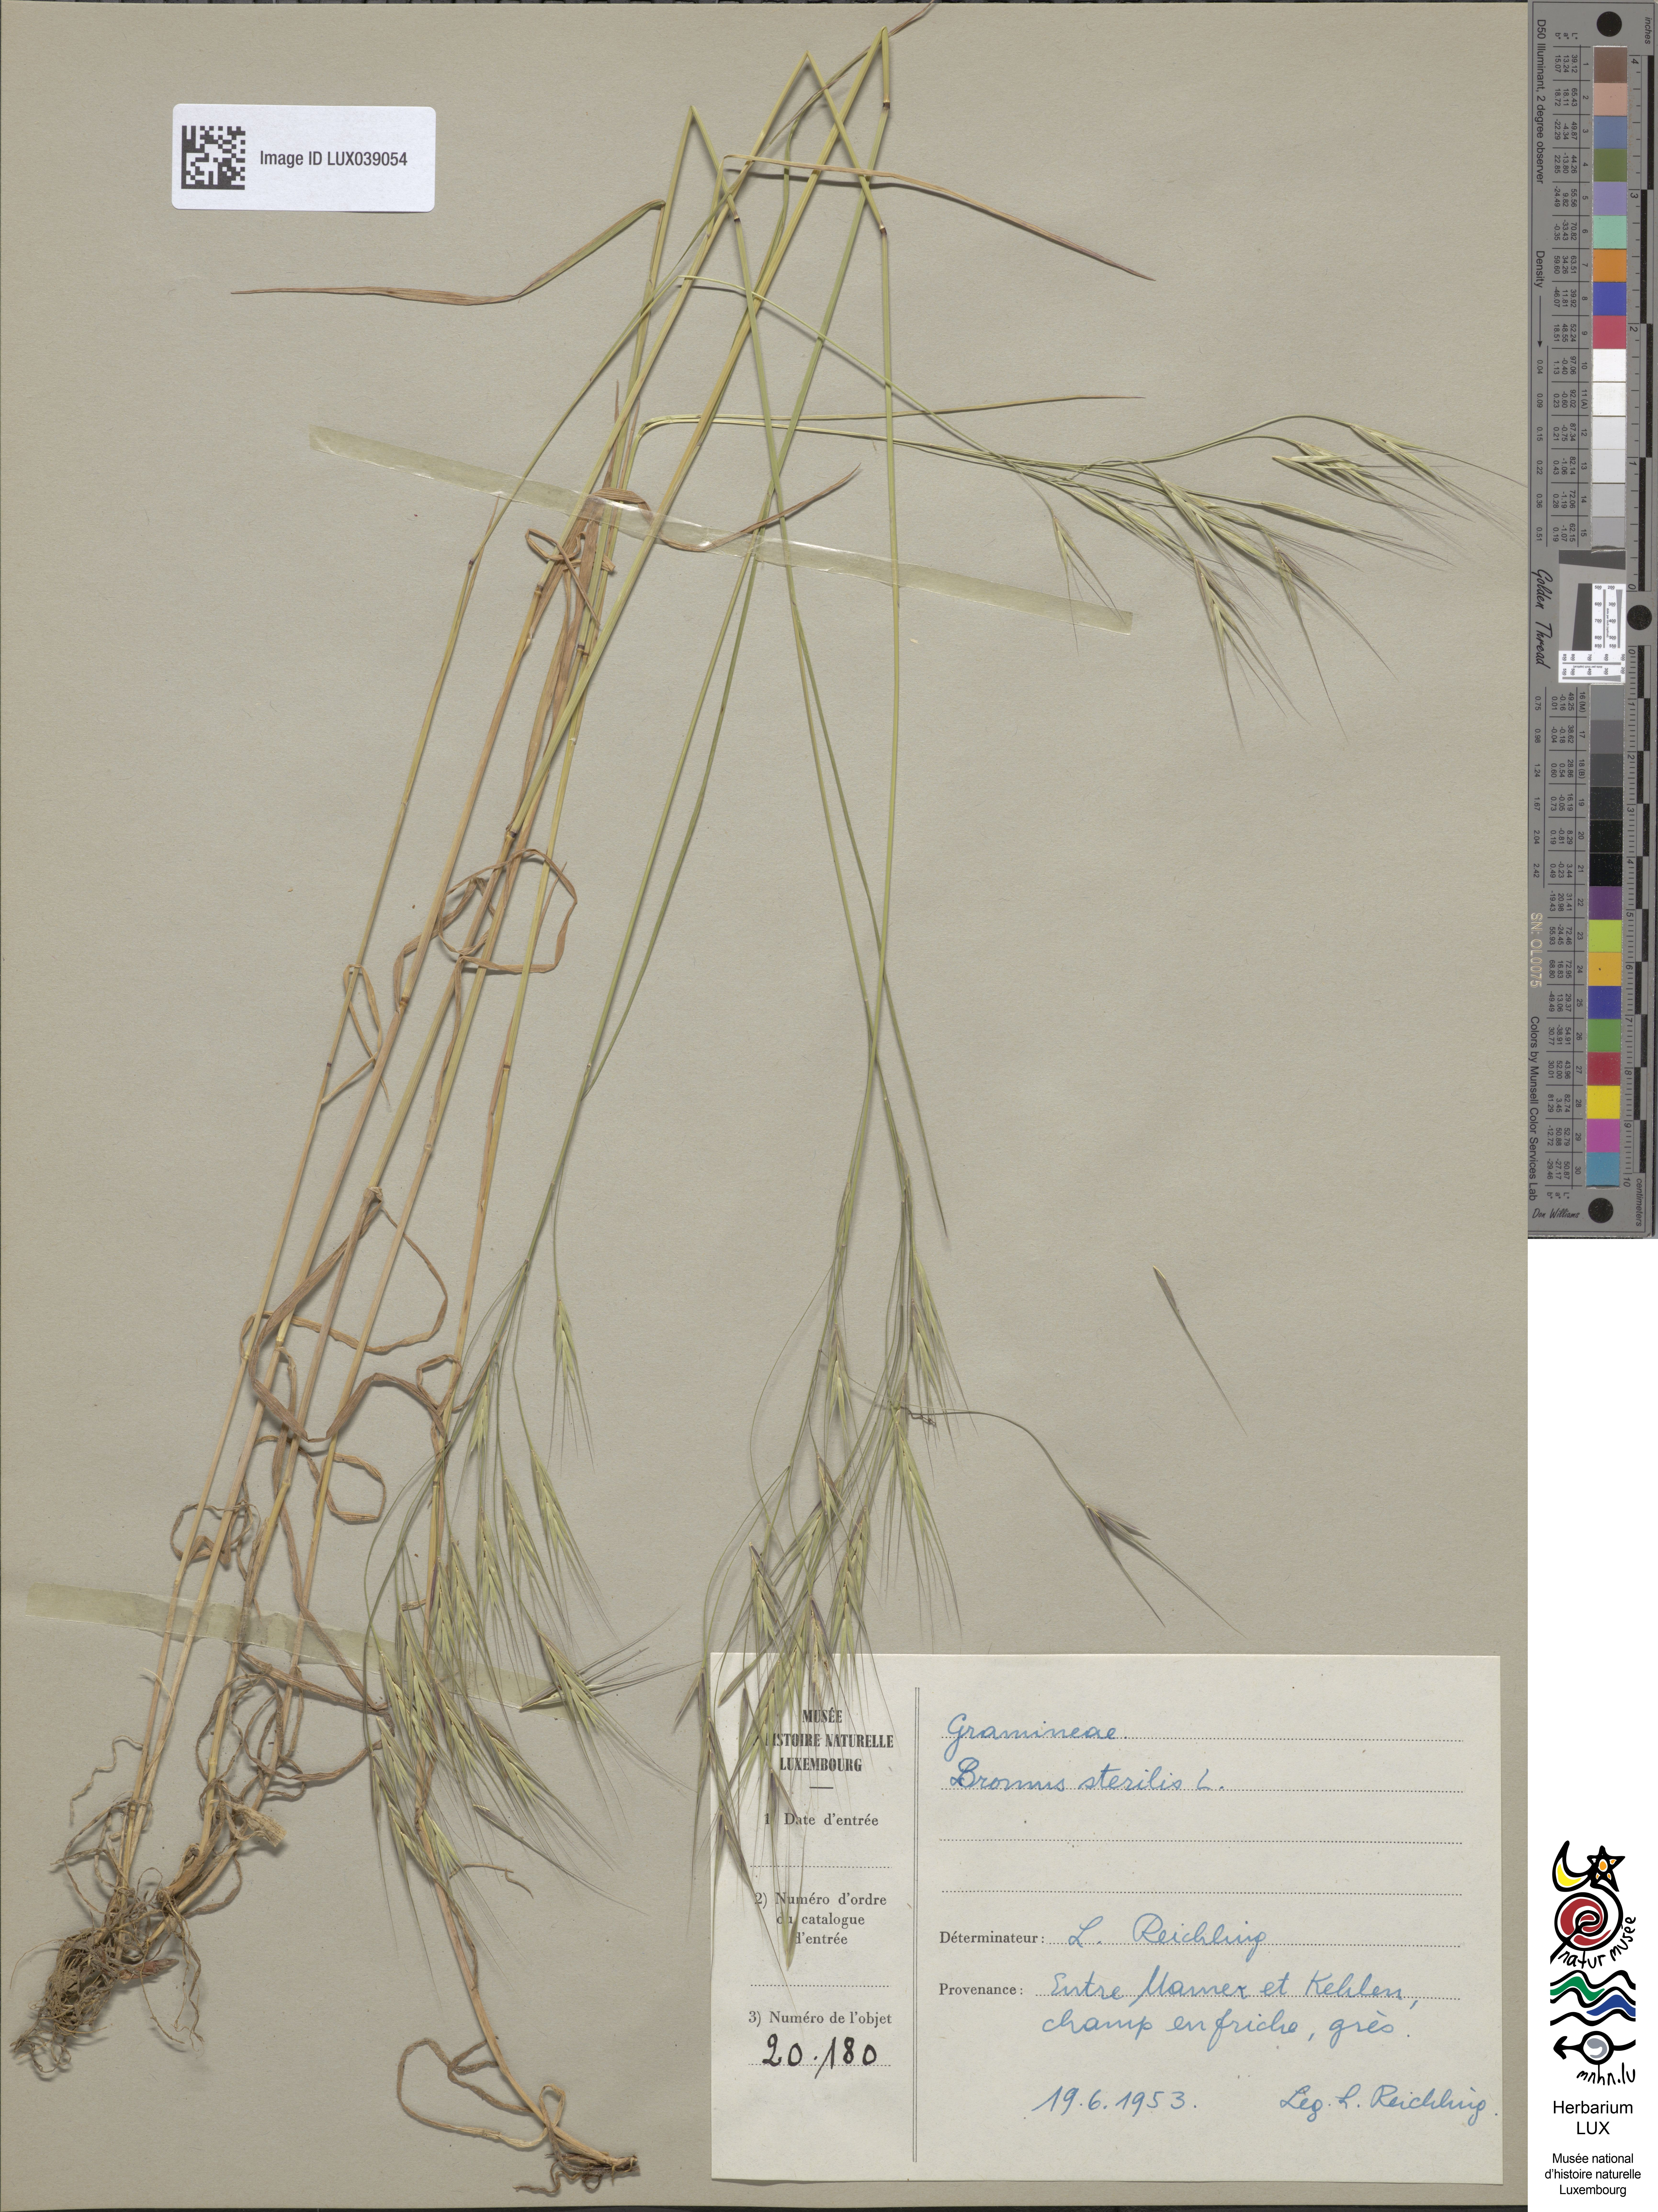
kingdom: Plantae
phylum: Tracheophyta
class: Liliopsida
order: Poales
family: Poaceae
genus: Bromus
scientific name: Bromus sterilis
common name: Poverty brome
